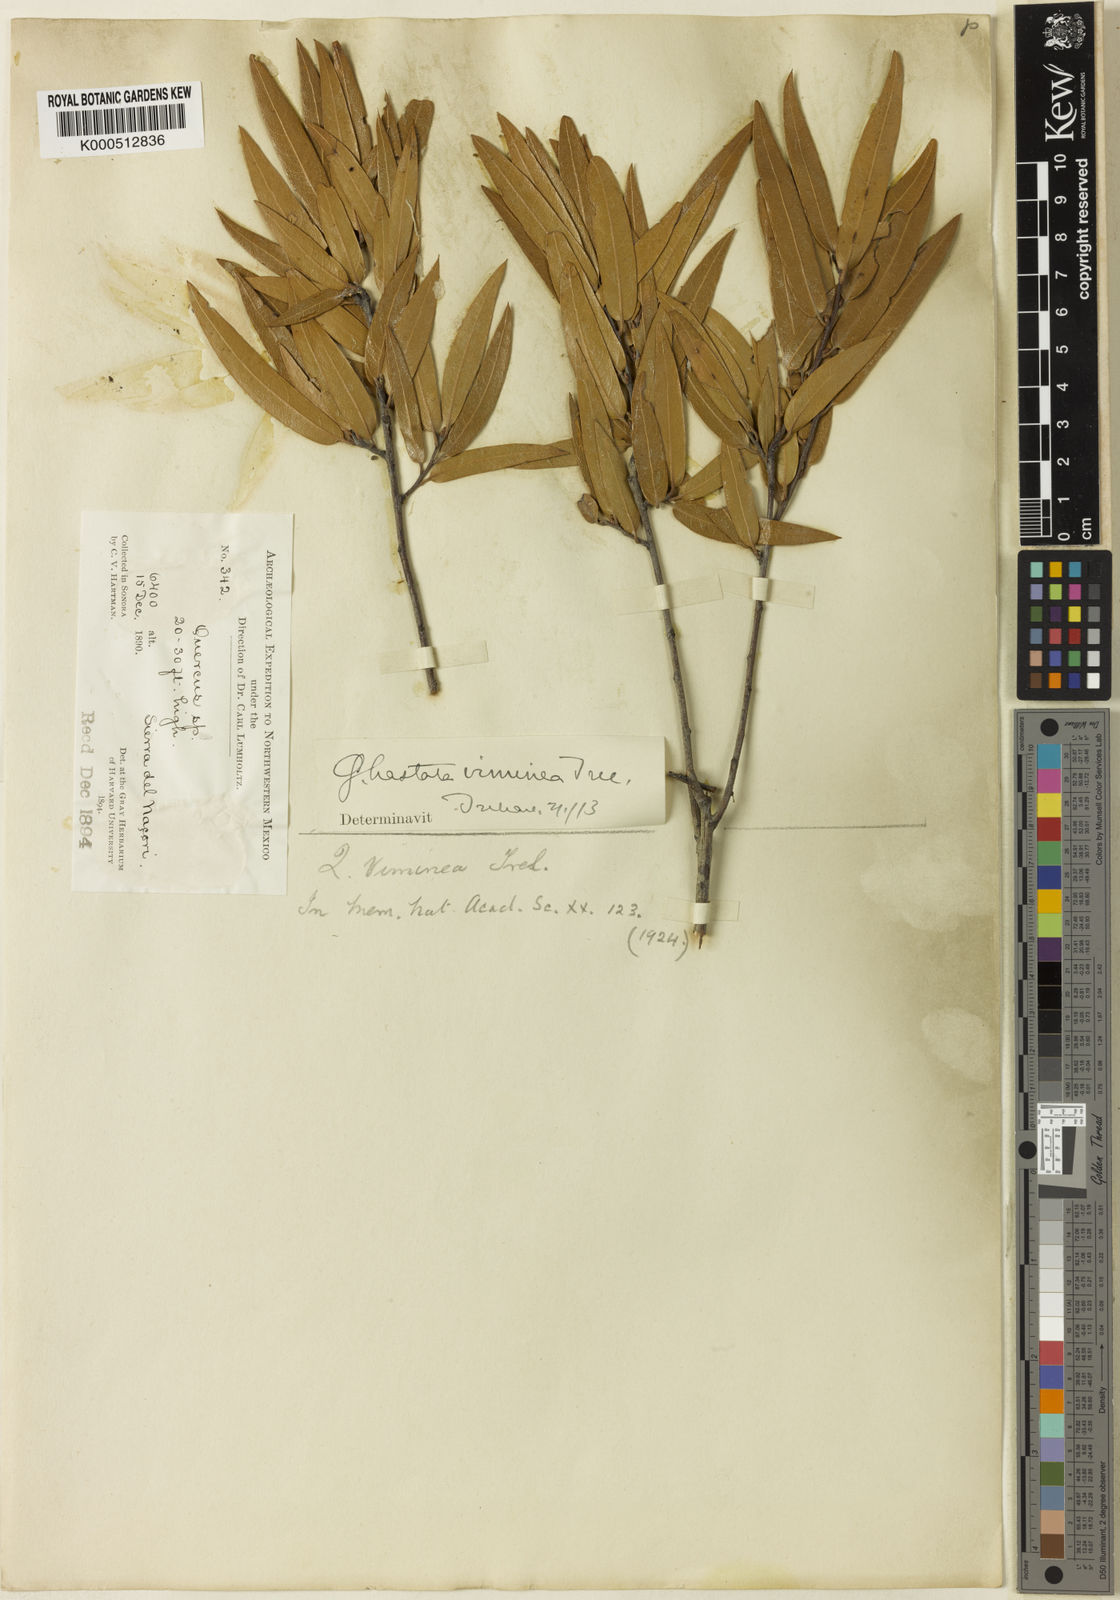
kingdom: Plantae
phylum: Tracheophyta
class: Magnoliopsida
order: Fagales
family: Fagaceae
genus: Quercus
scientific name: Quercus viminea
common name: Mexican willow oak
